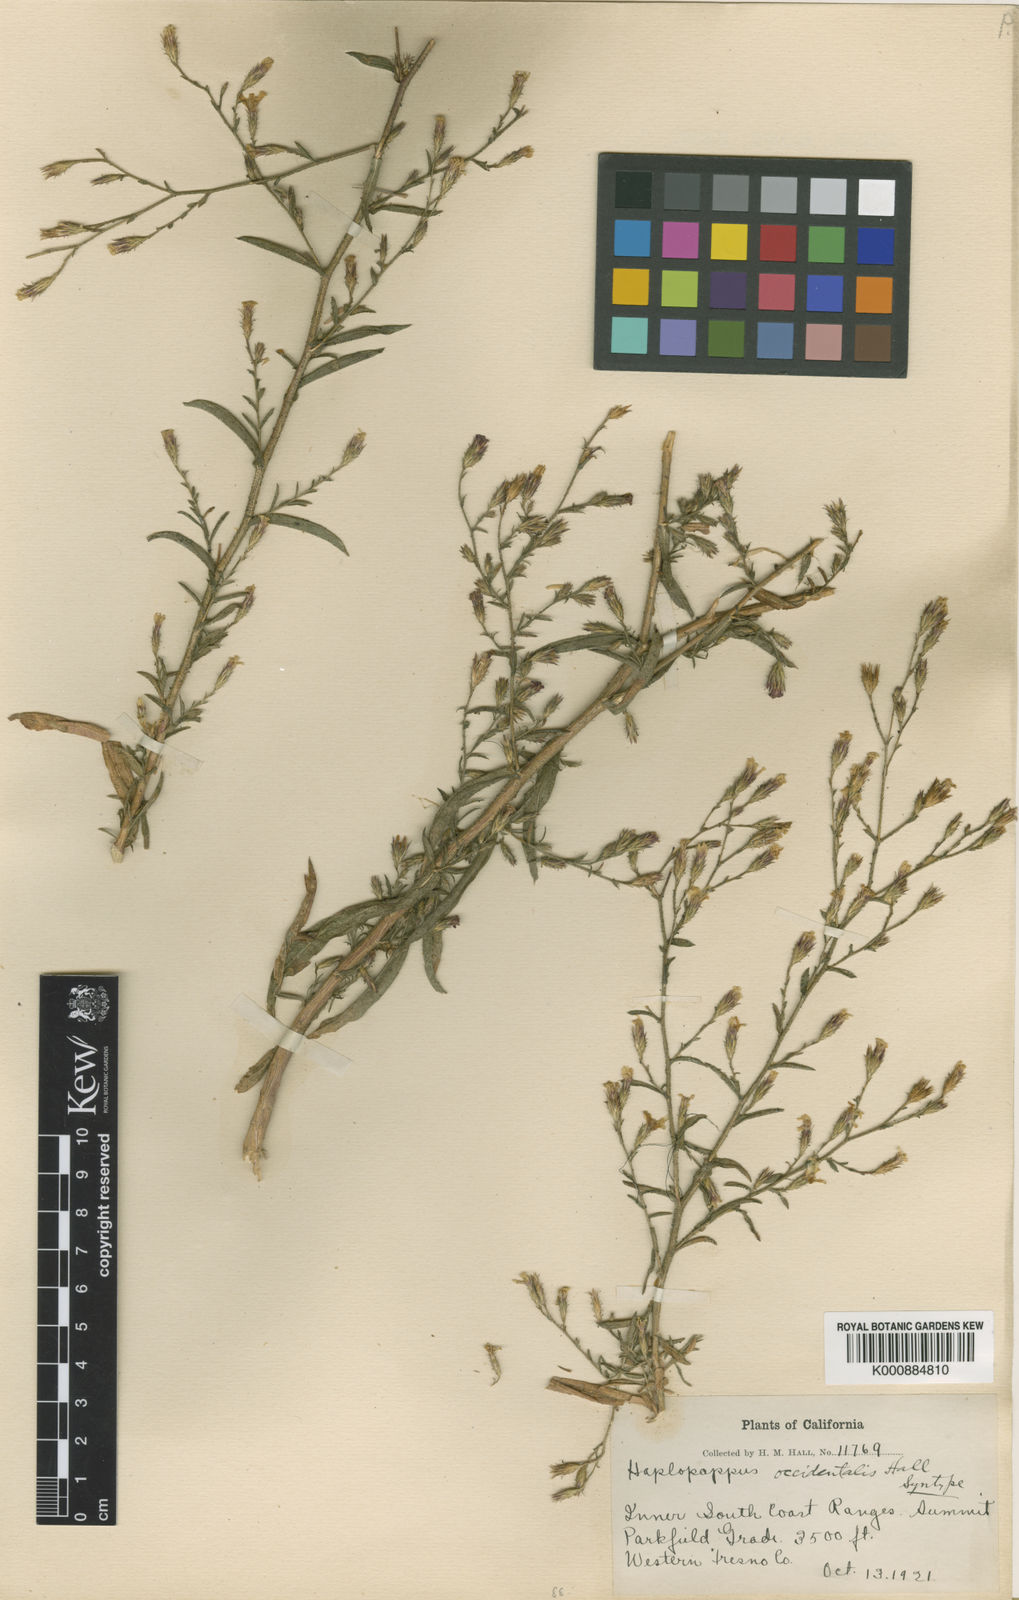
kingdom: Plantae
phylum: Tracheophyta
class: Magnoliopsida
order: Asterales
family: Asteraceae
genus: Benitoa
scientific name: Benitoa occidentalis
